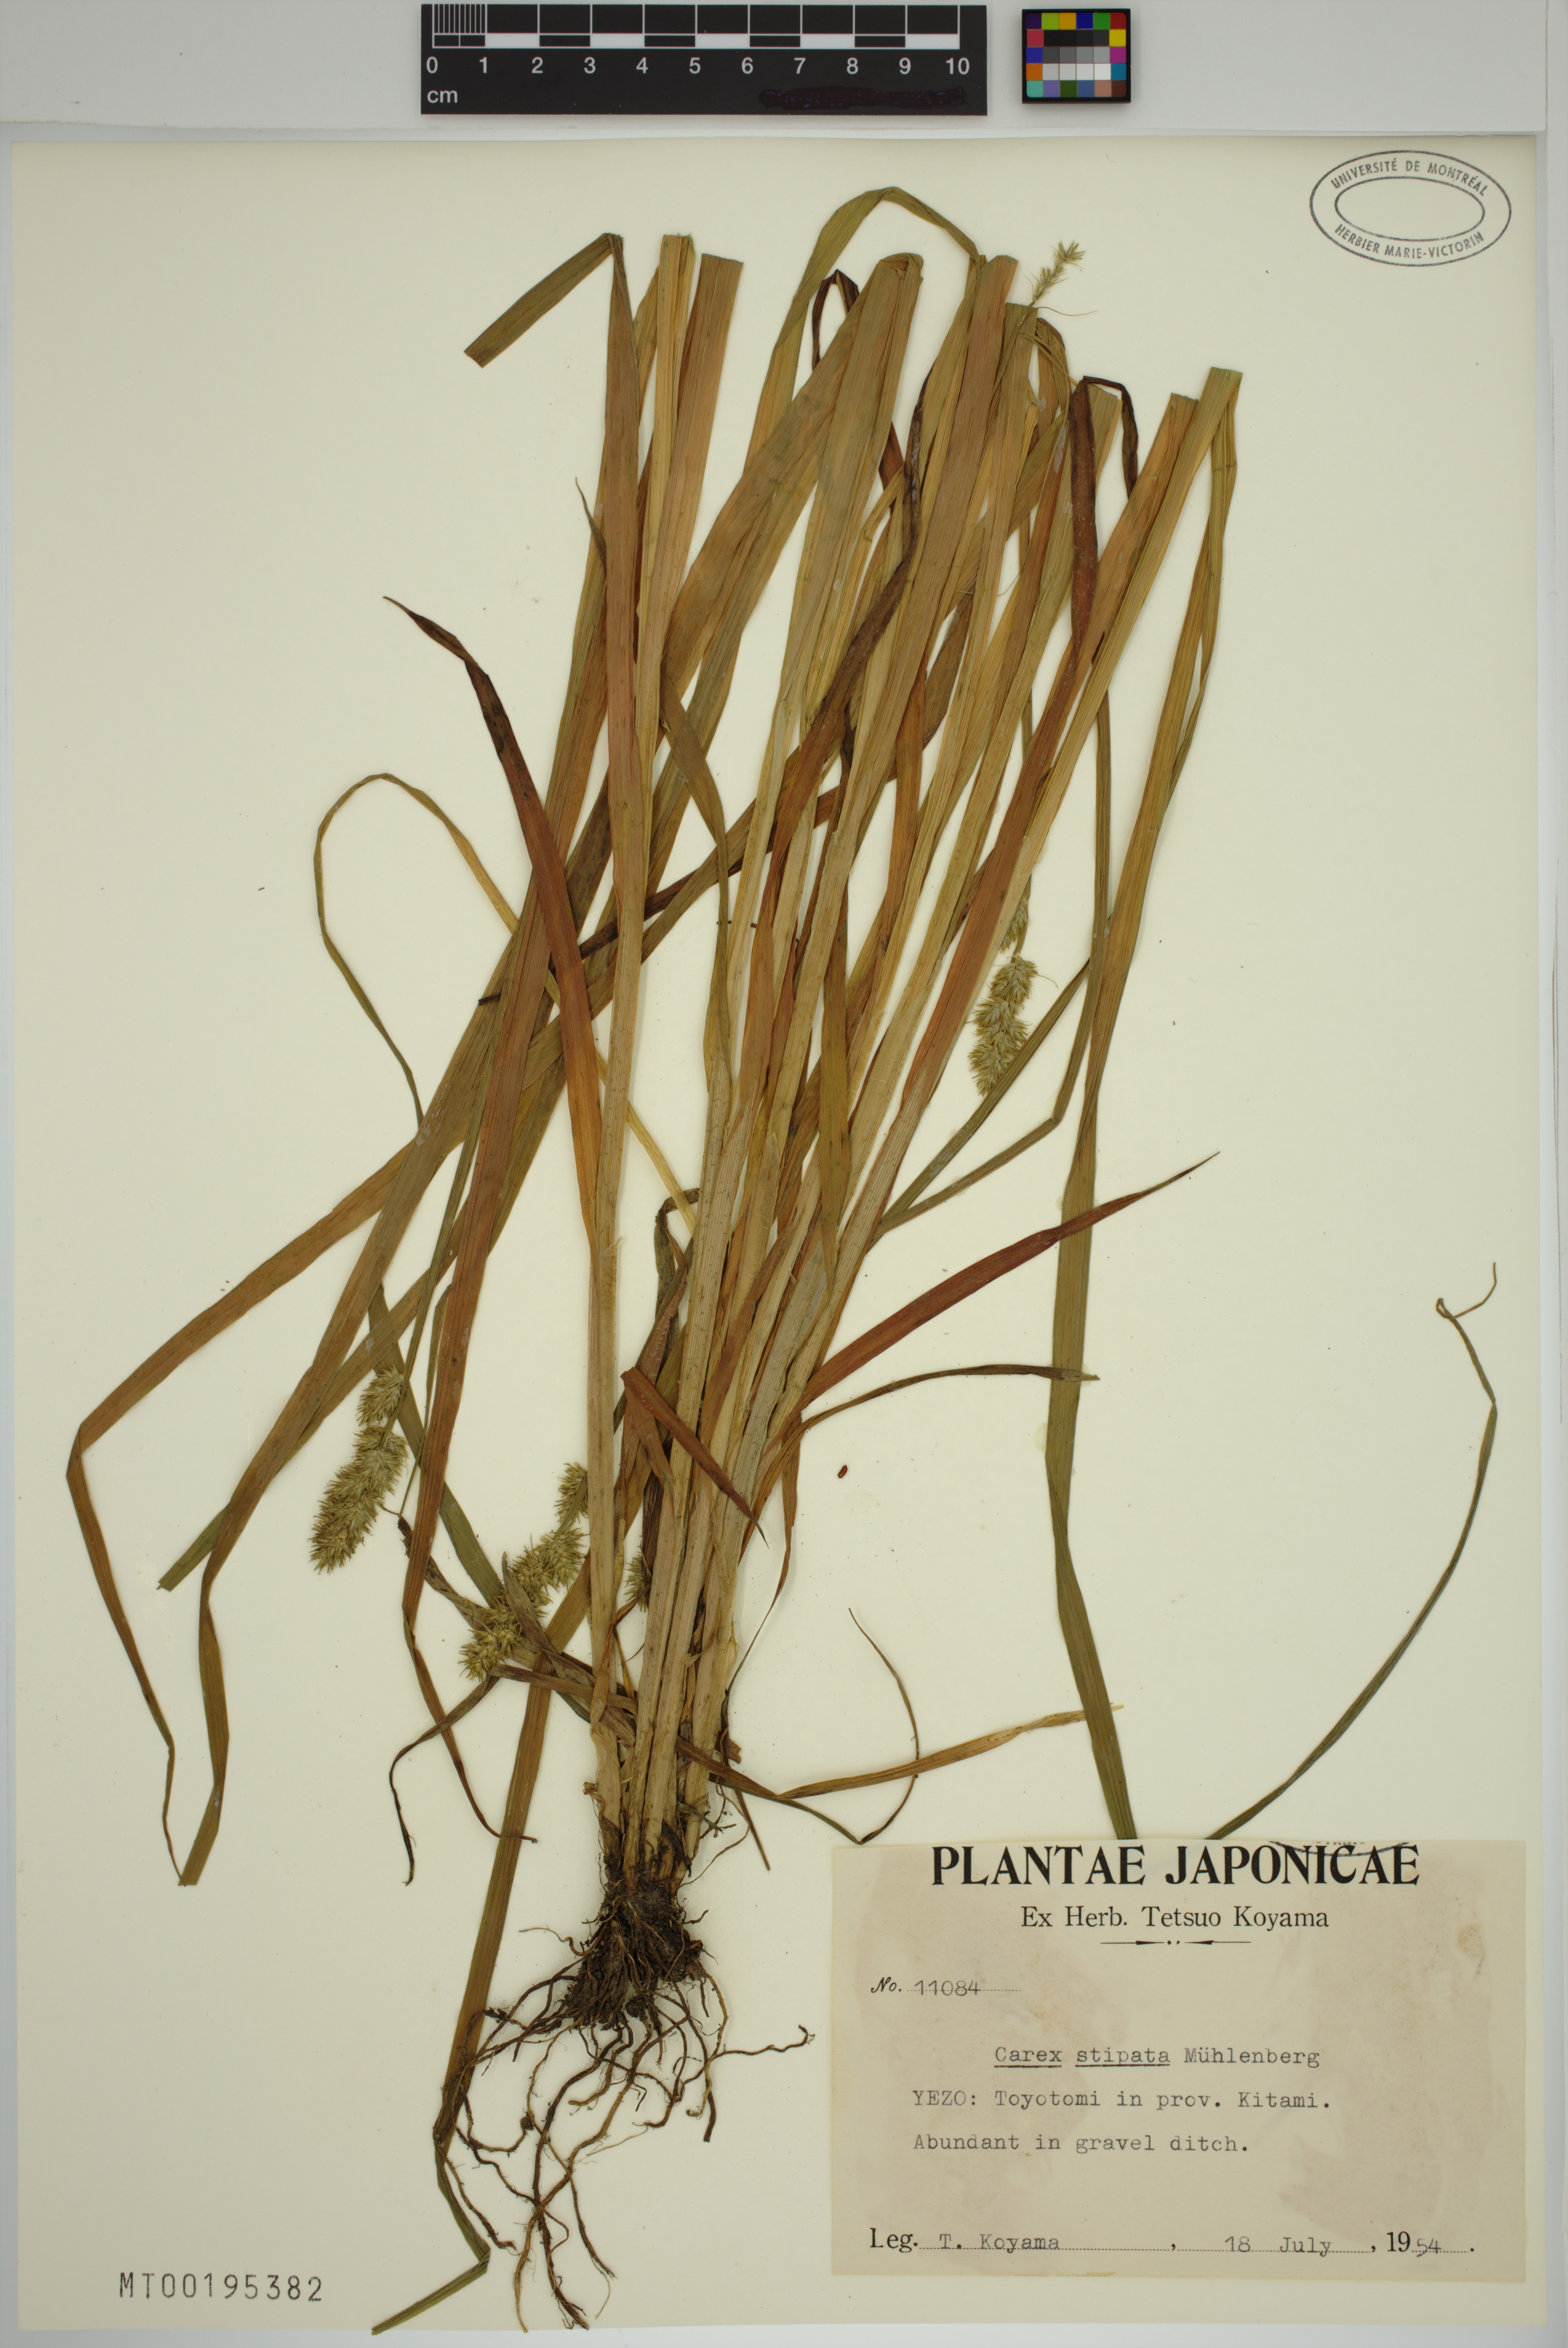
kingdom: Plantae
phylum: Tracheophyta
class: Liliopsida
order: Poales
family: Cyperaceae
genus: Carex
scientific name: Carex stipata
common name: Awl-fruited sedge
